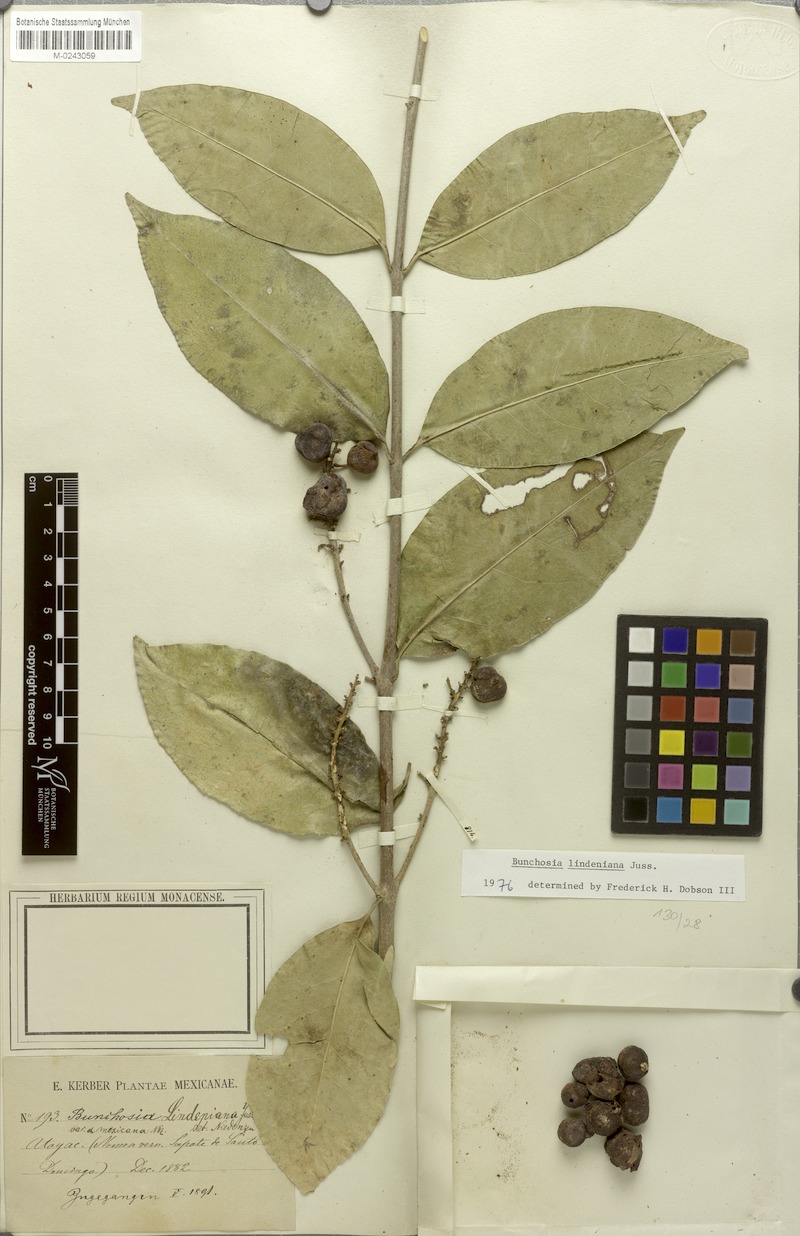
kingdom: Plantae
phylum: Tracheophyta
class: Magnoliopsida
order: Malpighiales
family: Malpighiaceae
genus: Bunchosia
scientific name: Bunchosia lindeniana
